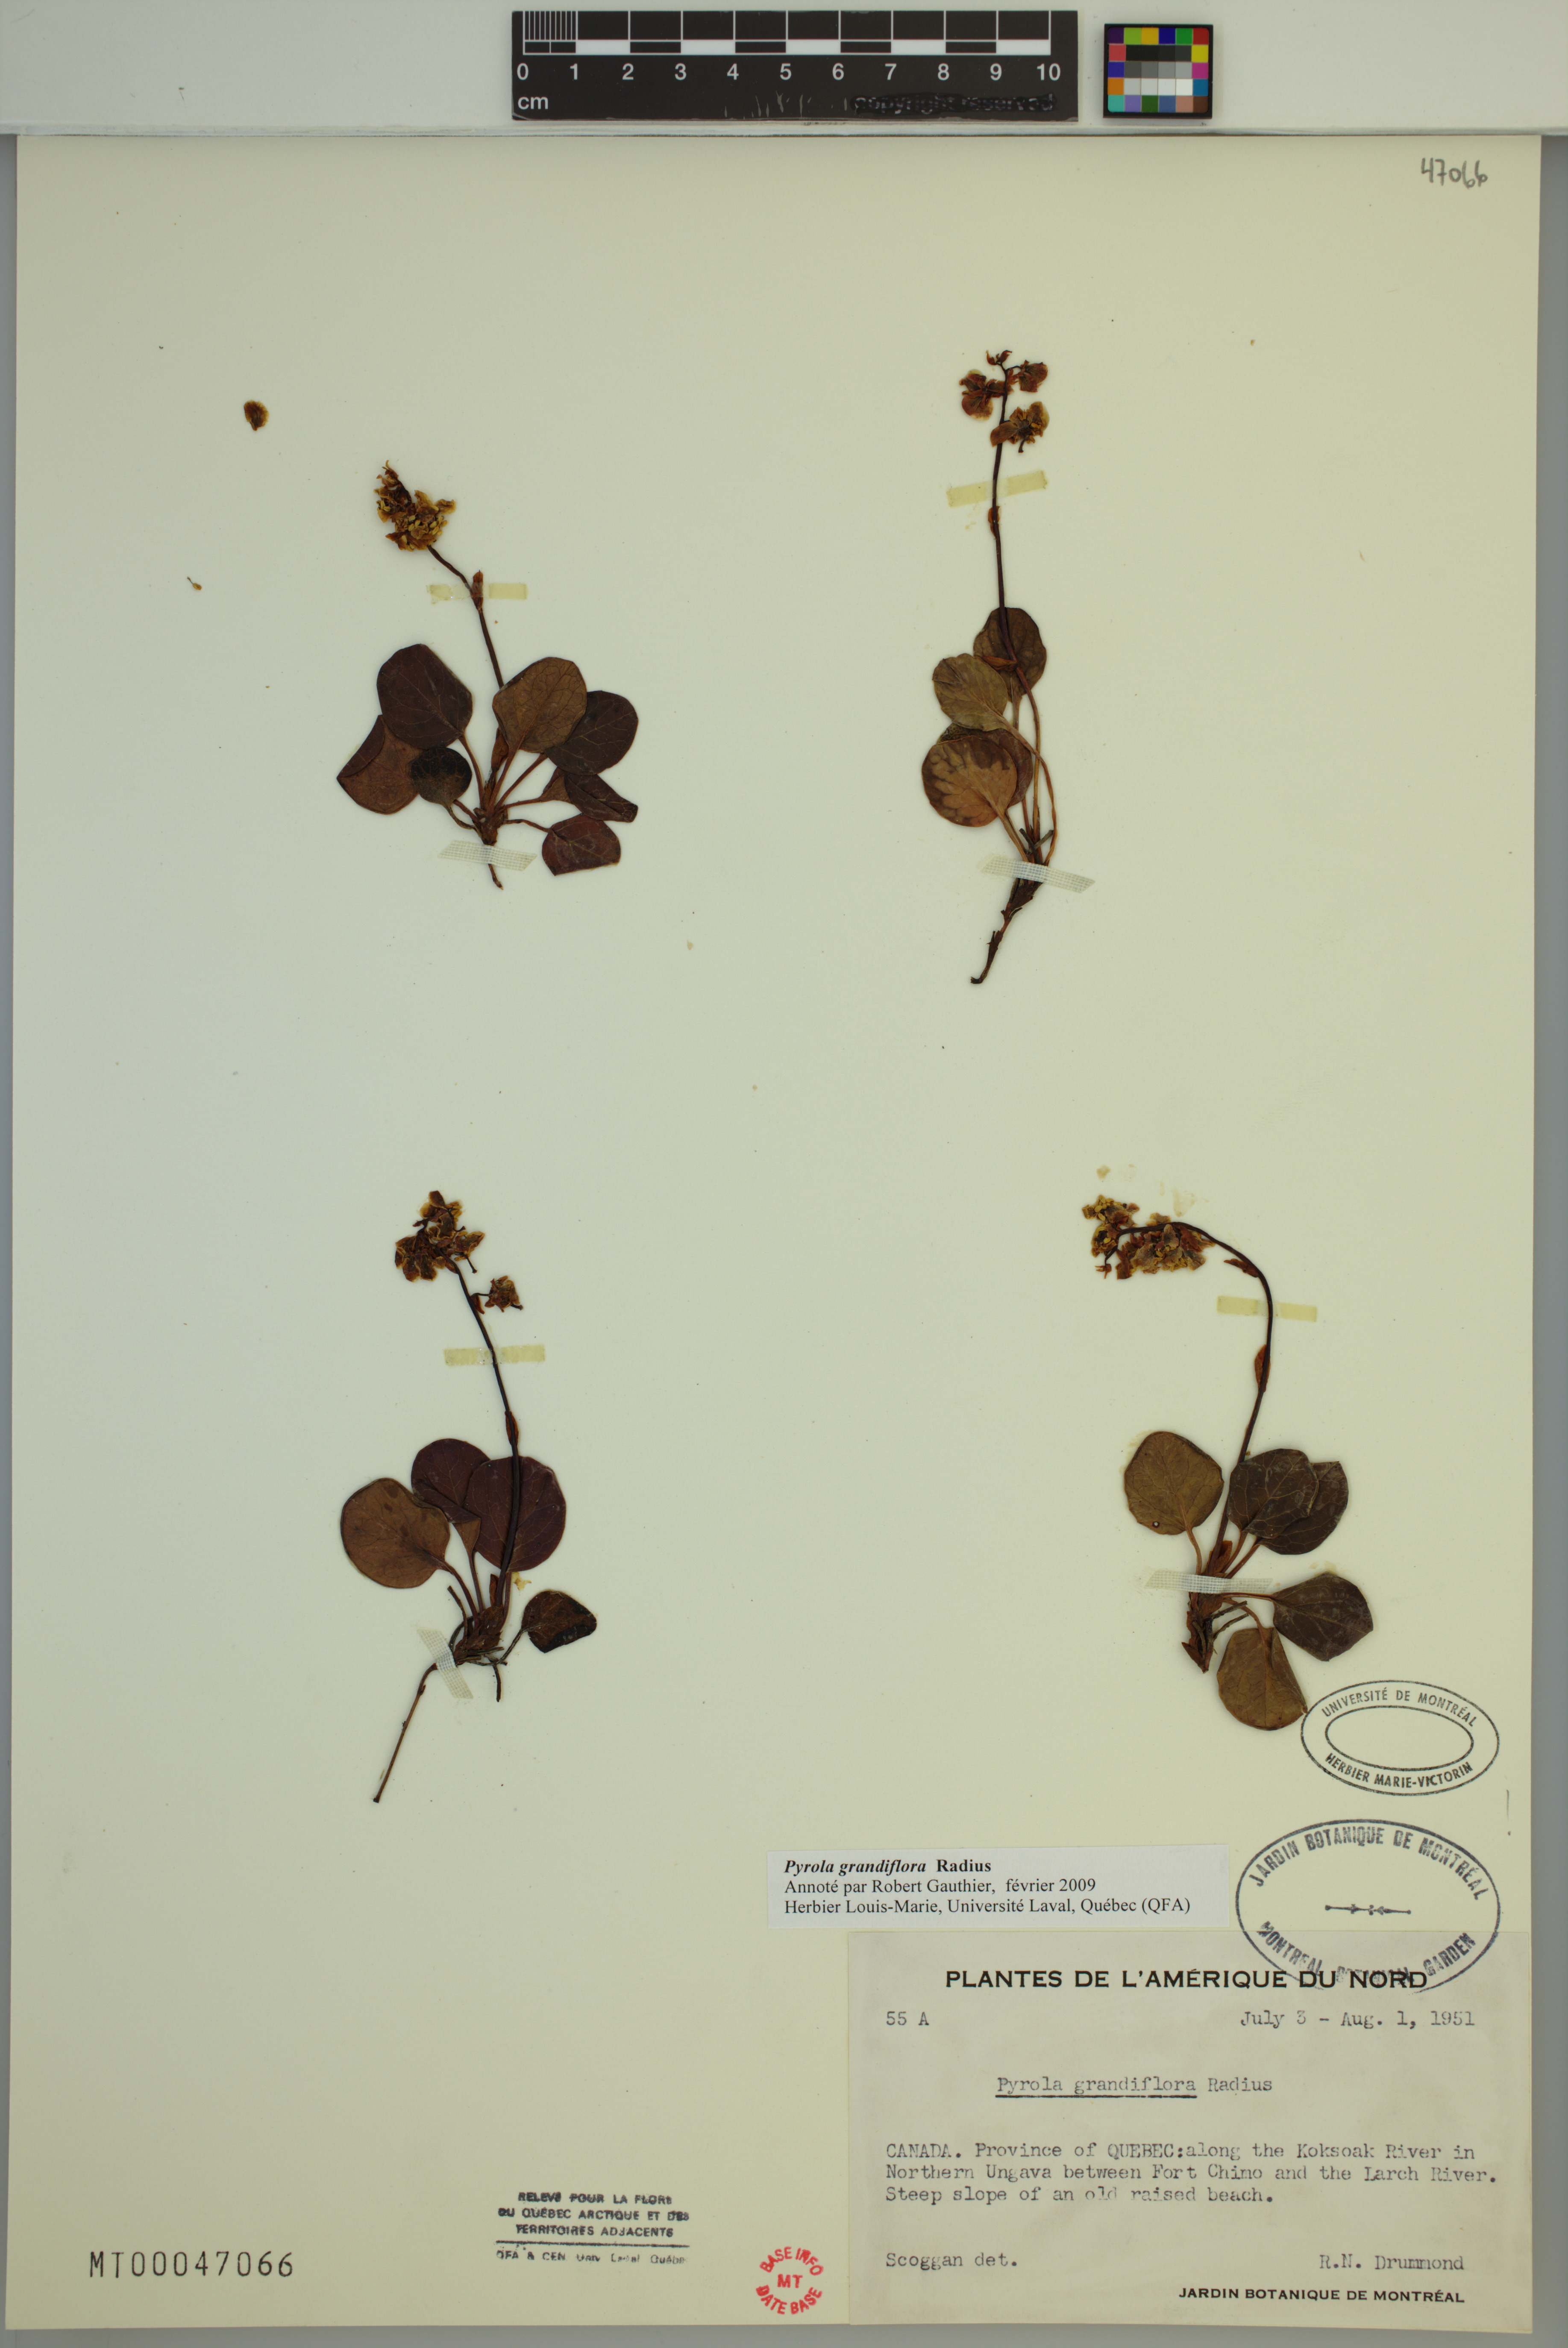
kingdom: Plantae
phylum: Tracheophyta
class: Magnoliopsida
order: Ericales
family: Ericaceae
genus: Pyrola
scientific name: Pyrola grandiflora
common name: Arctic pyrola
